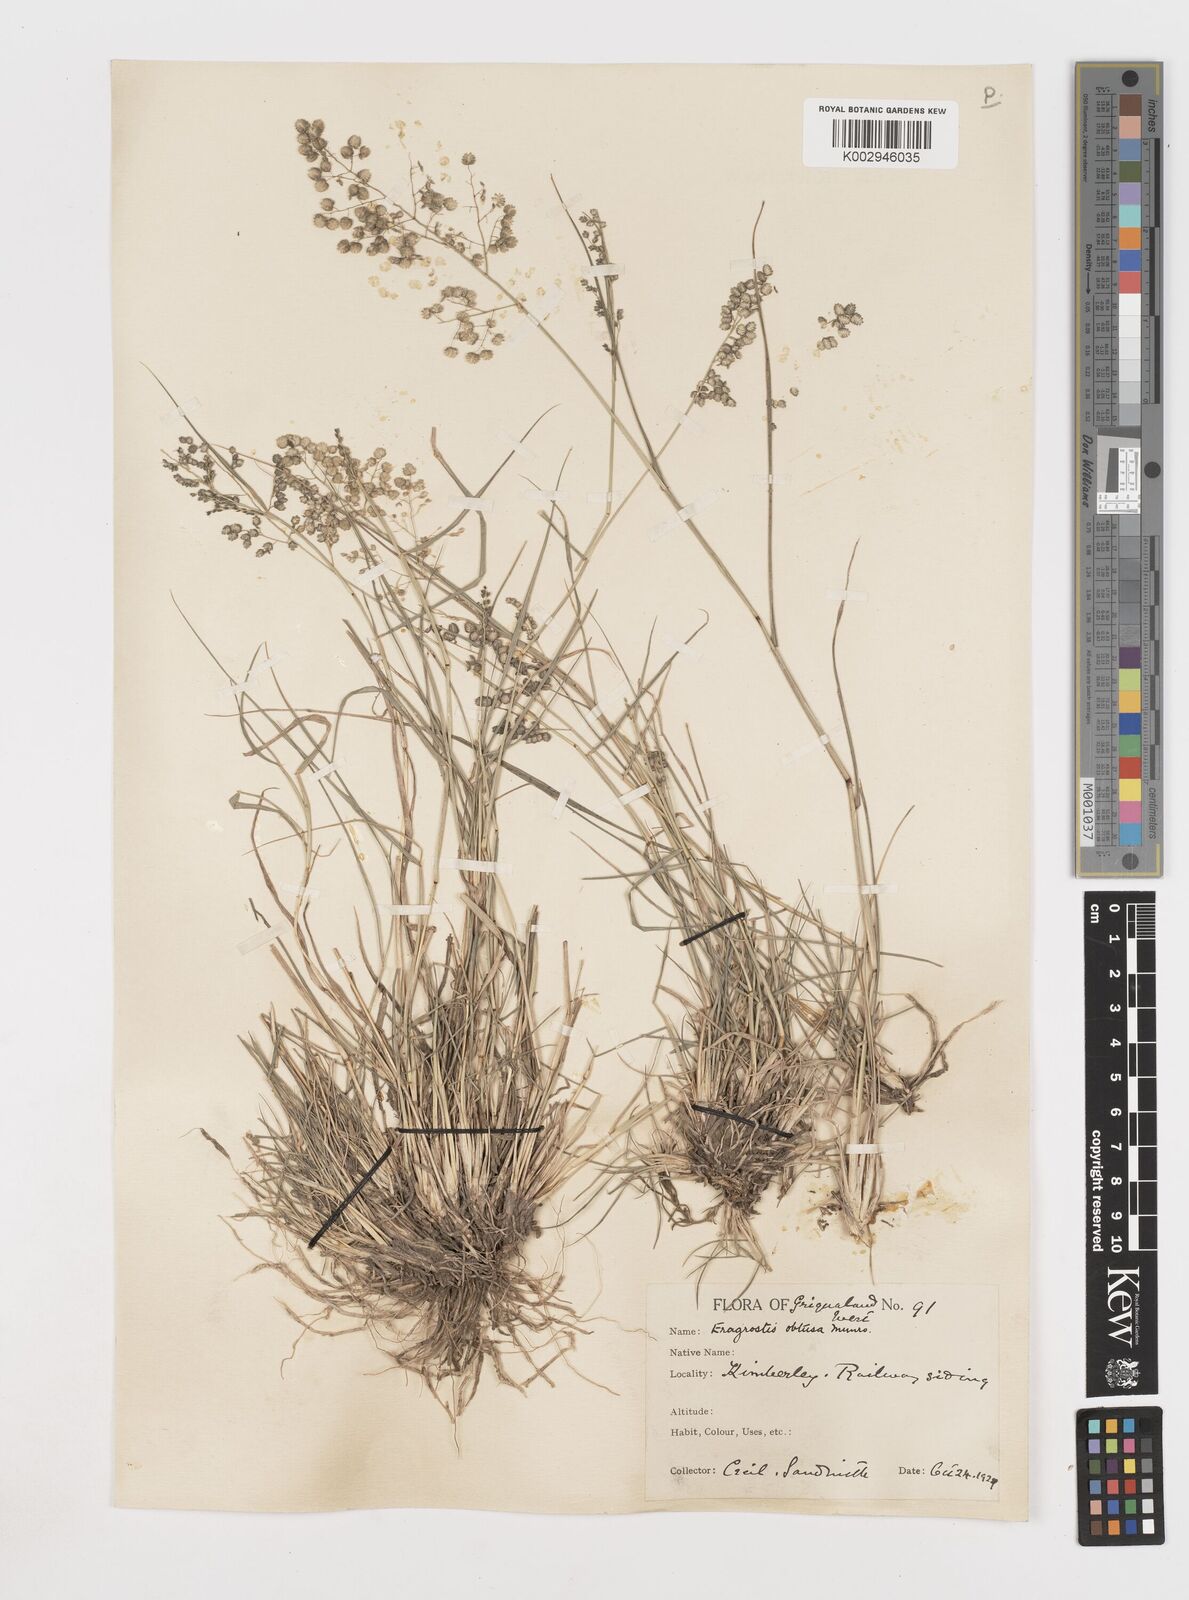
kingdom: Plantae
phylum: Tracheophyta
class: Liliopsida
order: Poales
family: Poaceae
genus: Eragrostis
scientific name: Eragrostis obtusa
